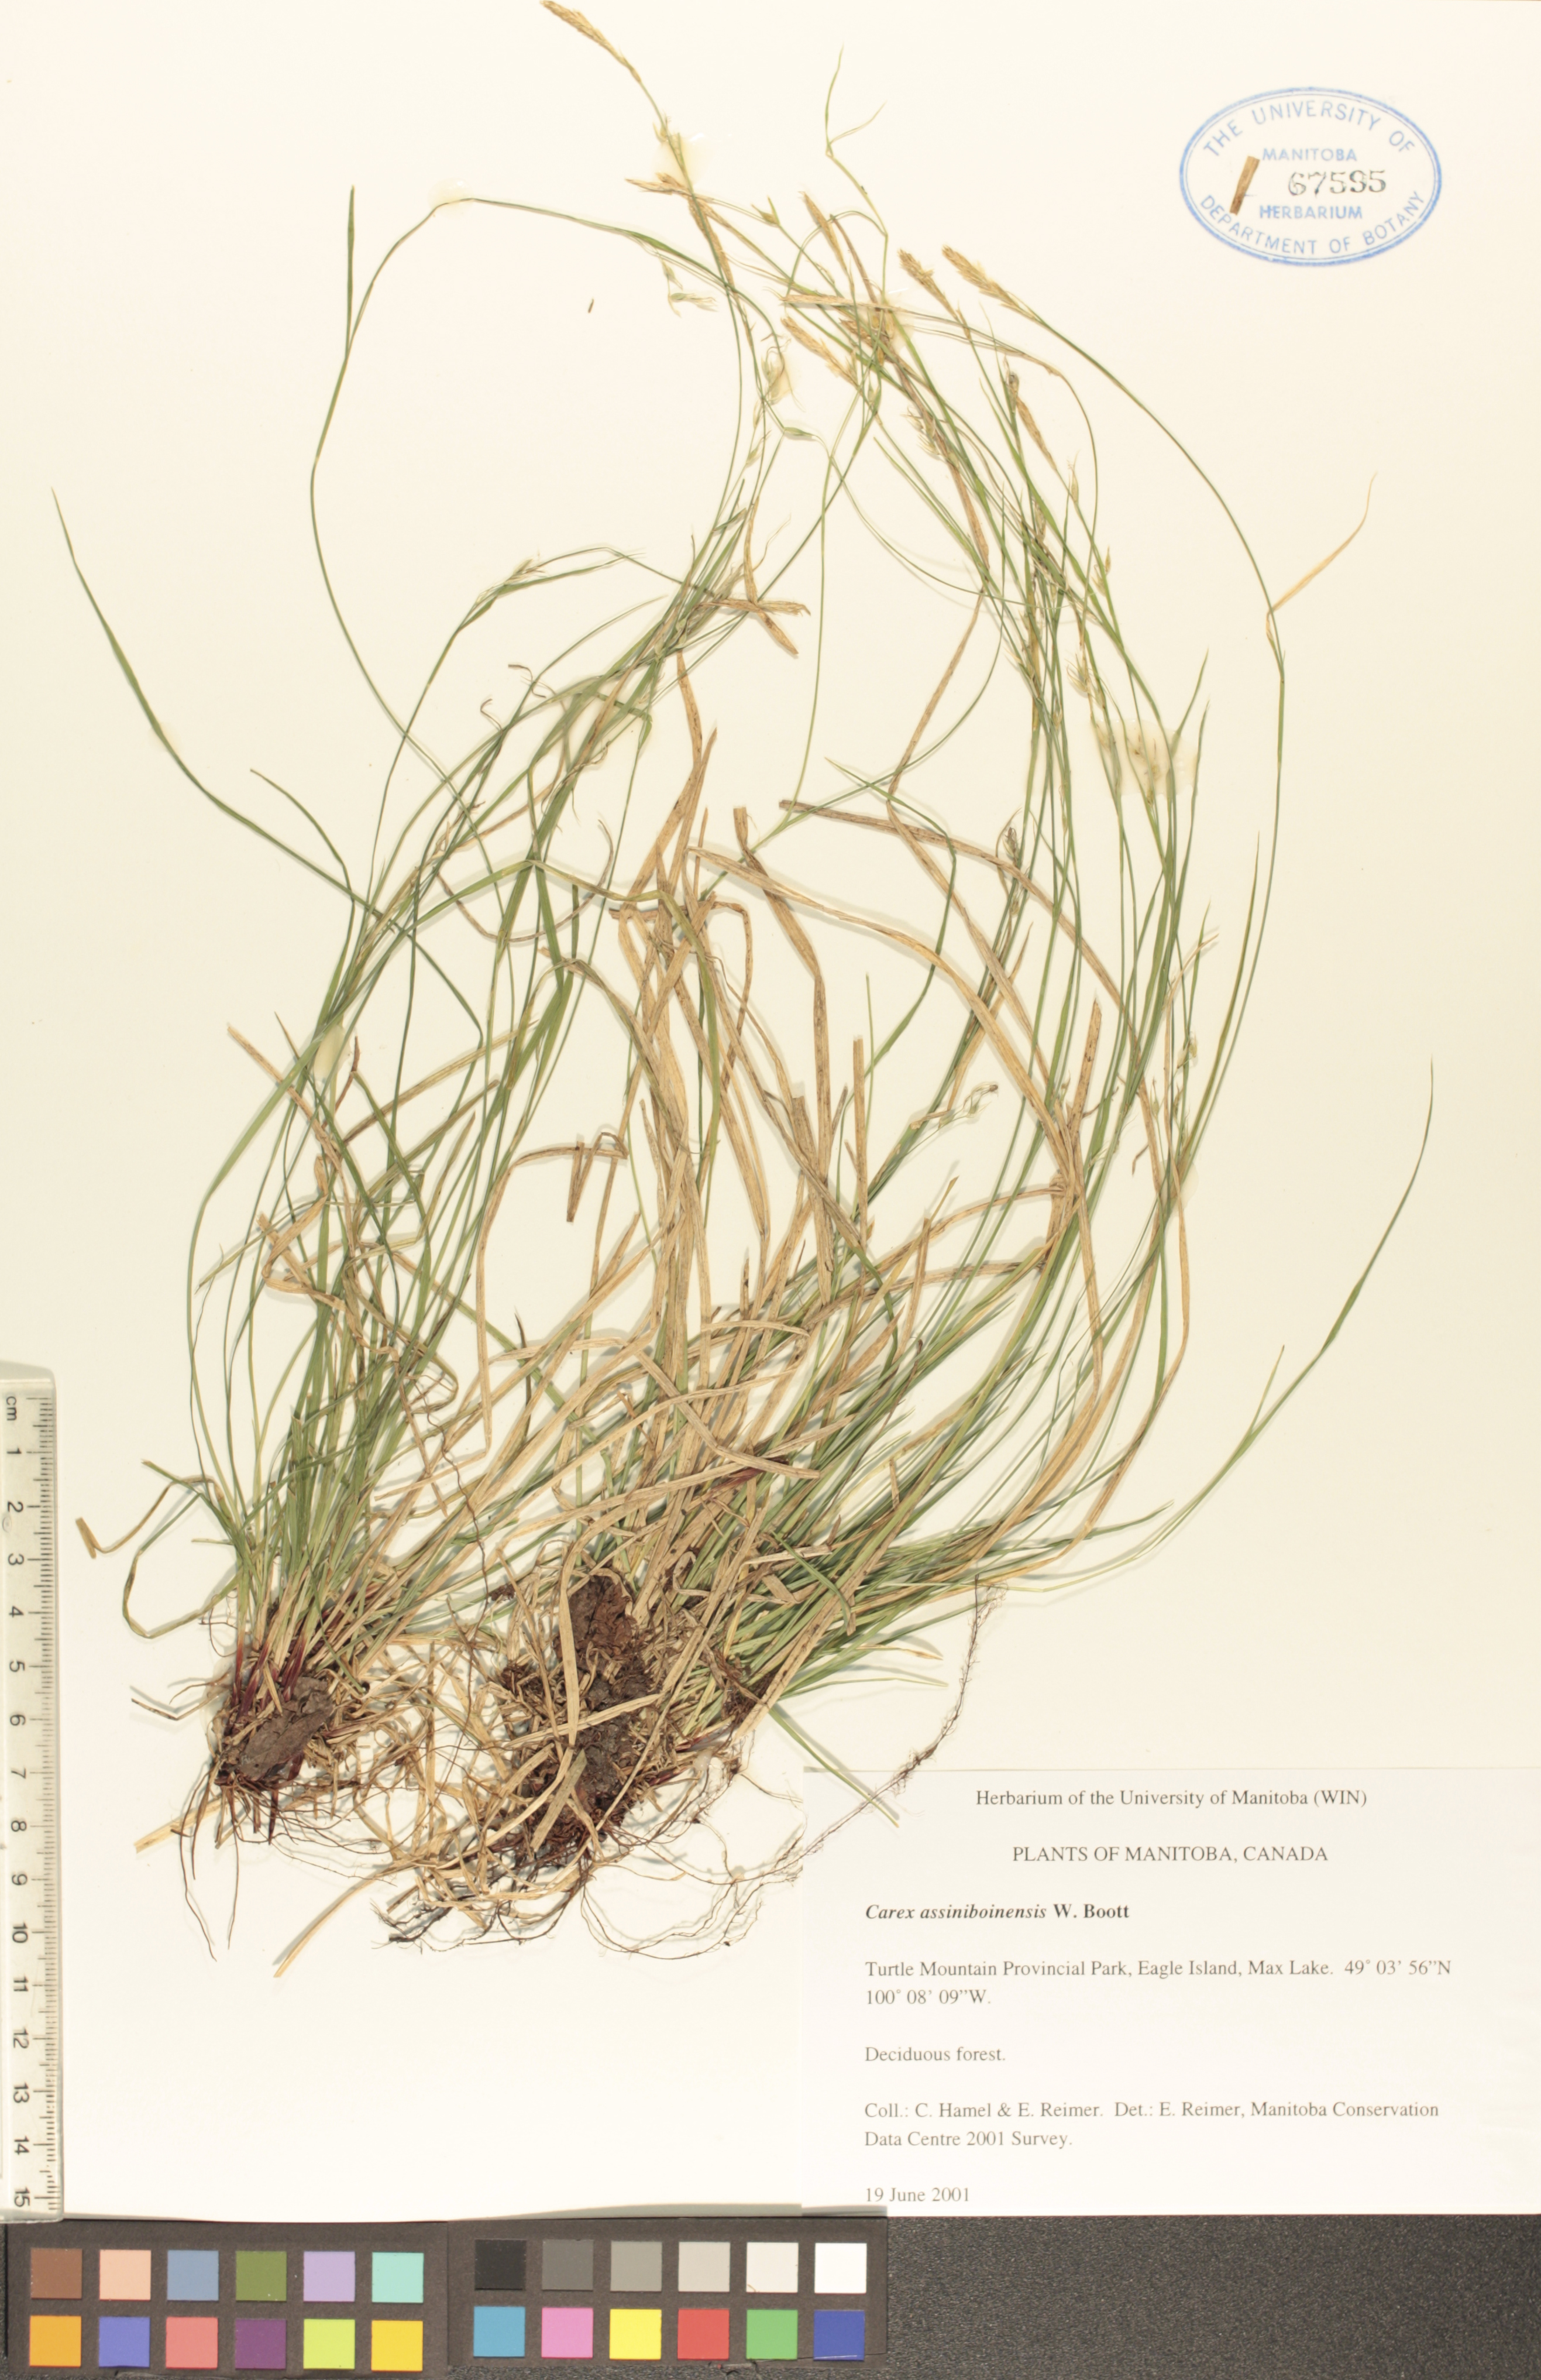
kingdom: Plantae
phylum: Tracheophyta
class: Liliopsida
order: Poales
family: Cyperaceae
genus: Carex
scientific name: Carex assiniboinensis
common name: Assiniboia sedge
